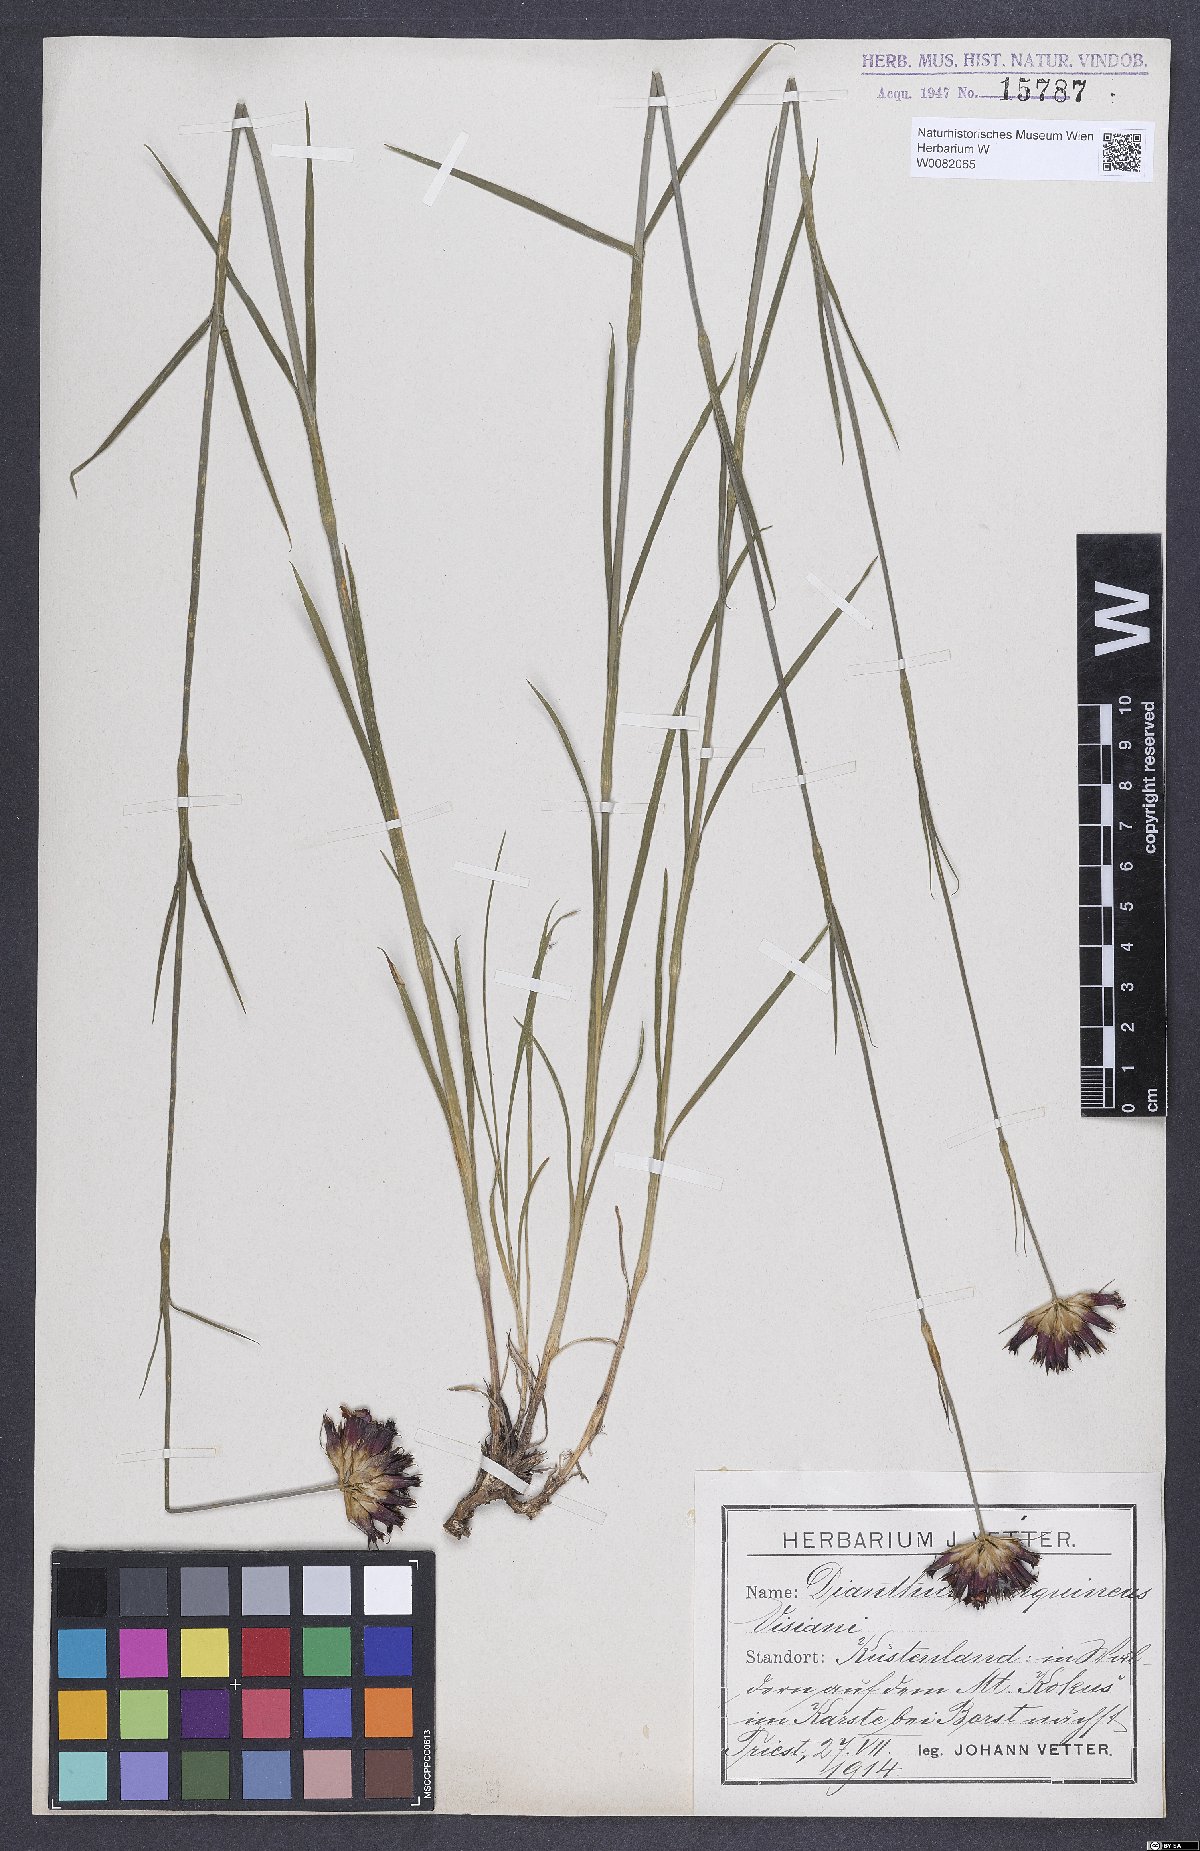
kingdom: Plantae
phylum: Tracheophyta
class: Magnoliopsida
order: Caryophyllales
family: Caryophyllaceae
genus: Dianthus
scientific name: Dianthus carthusianorum
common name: Carthusian pink
